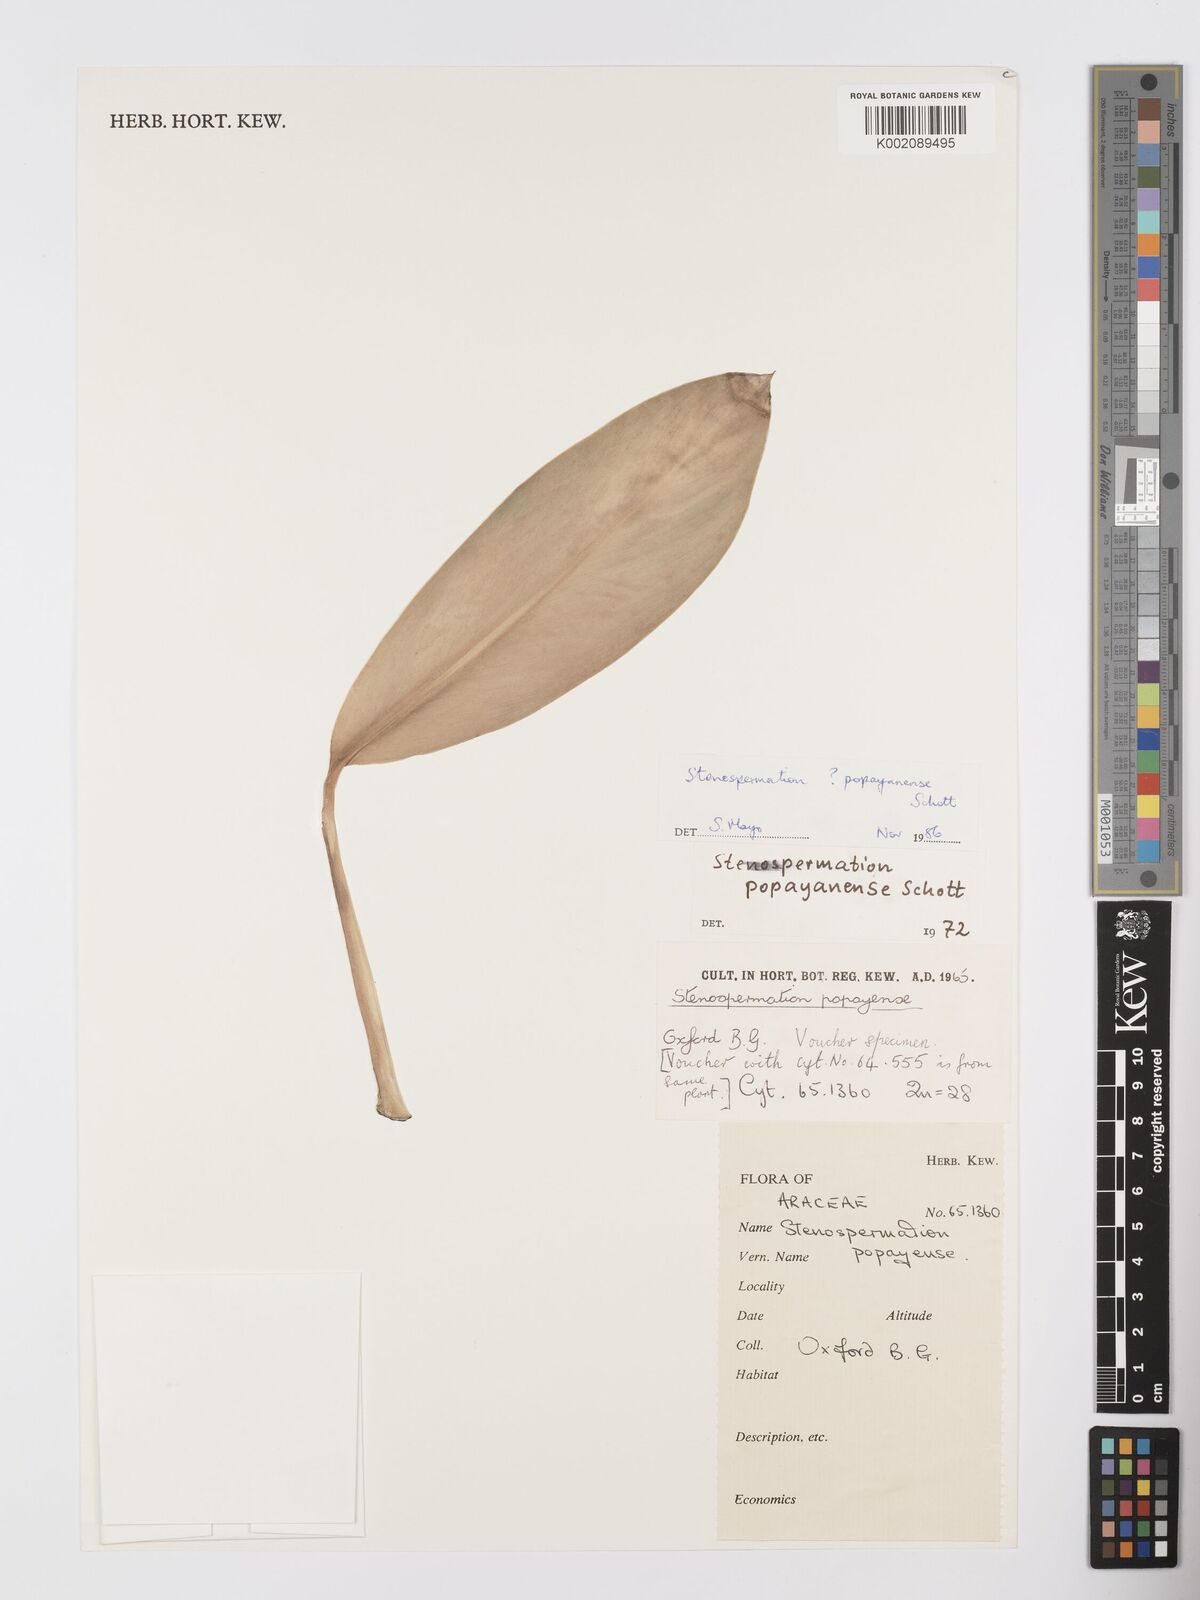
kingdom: Plantae
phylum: Tracheophyta
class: Liliopsida
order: Alismatales
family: Araceae
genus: Stenospermation
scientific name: Stenospermation popayanense
